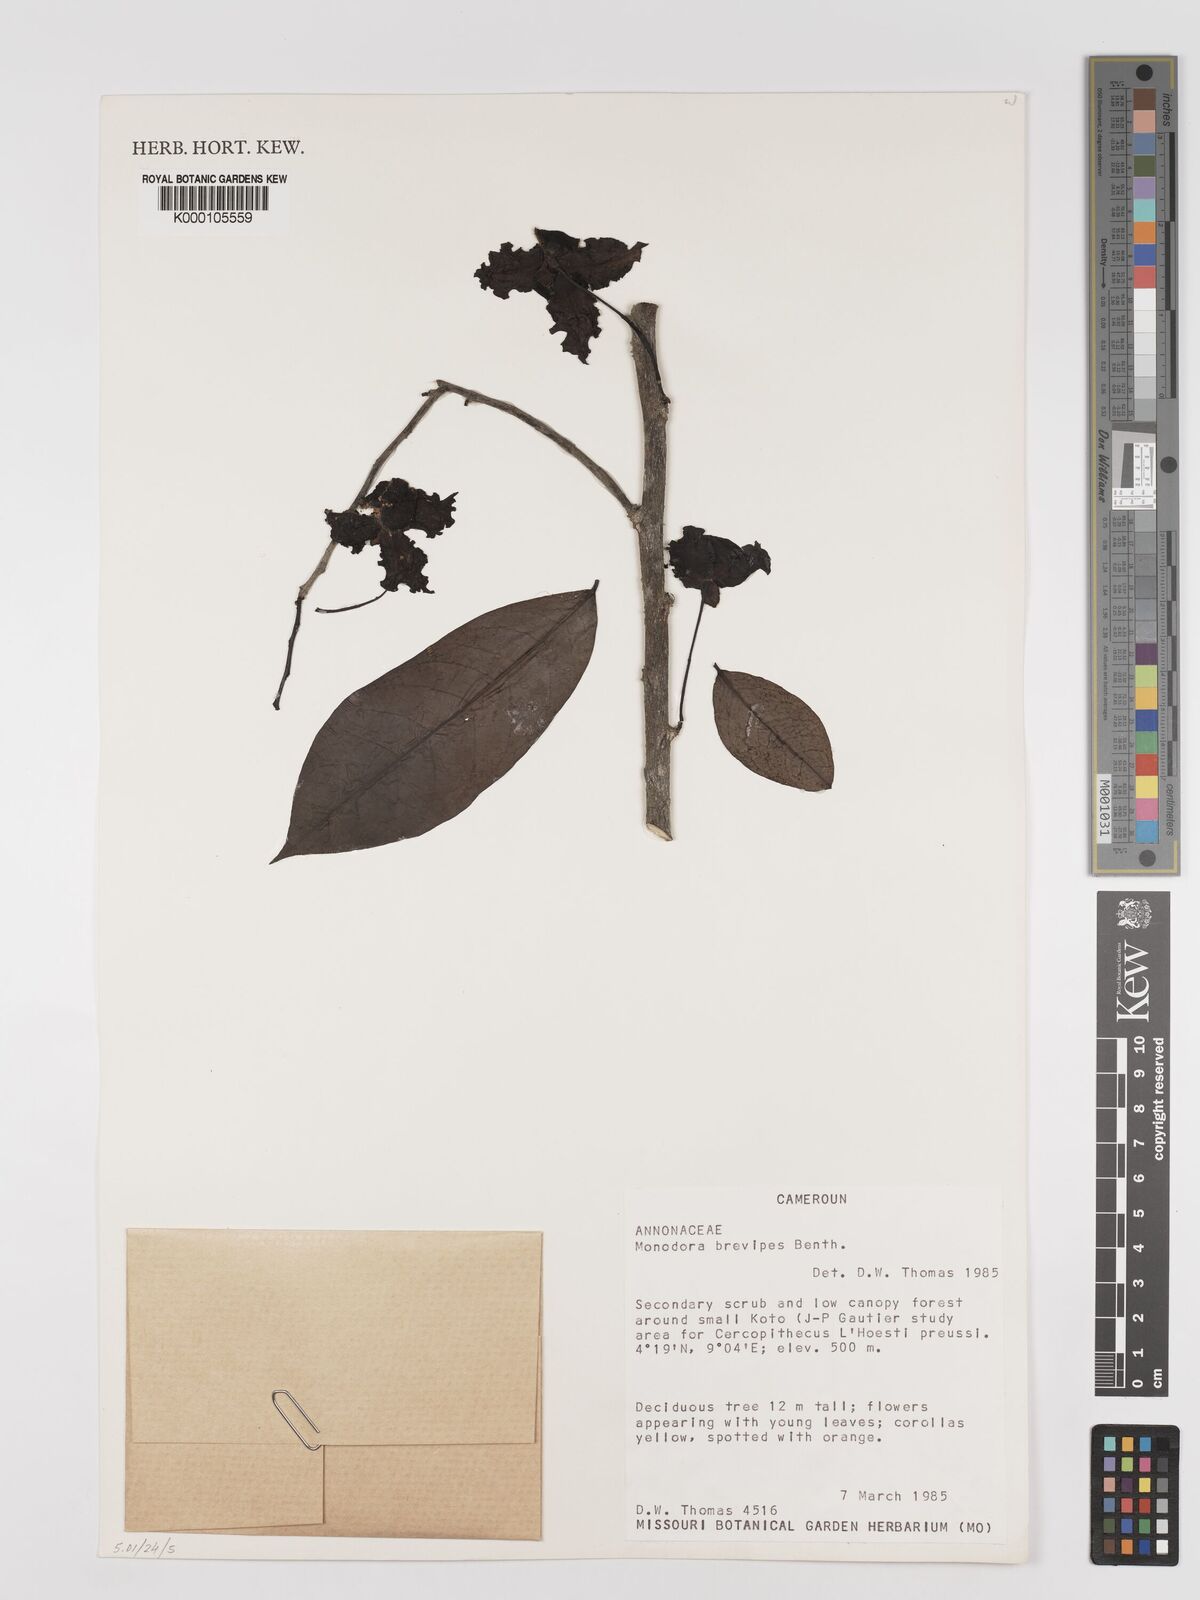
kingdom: Plantae
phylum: Tracheophyta
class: Magnoliopsida
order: Magnoliales
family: Annonaceae
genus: Monodora
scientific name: Monodora undulata
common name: Yellow-flower-nutmeg
